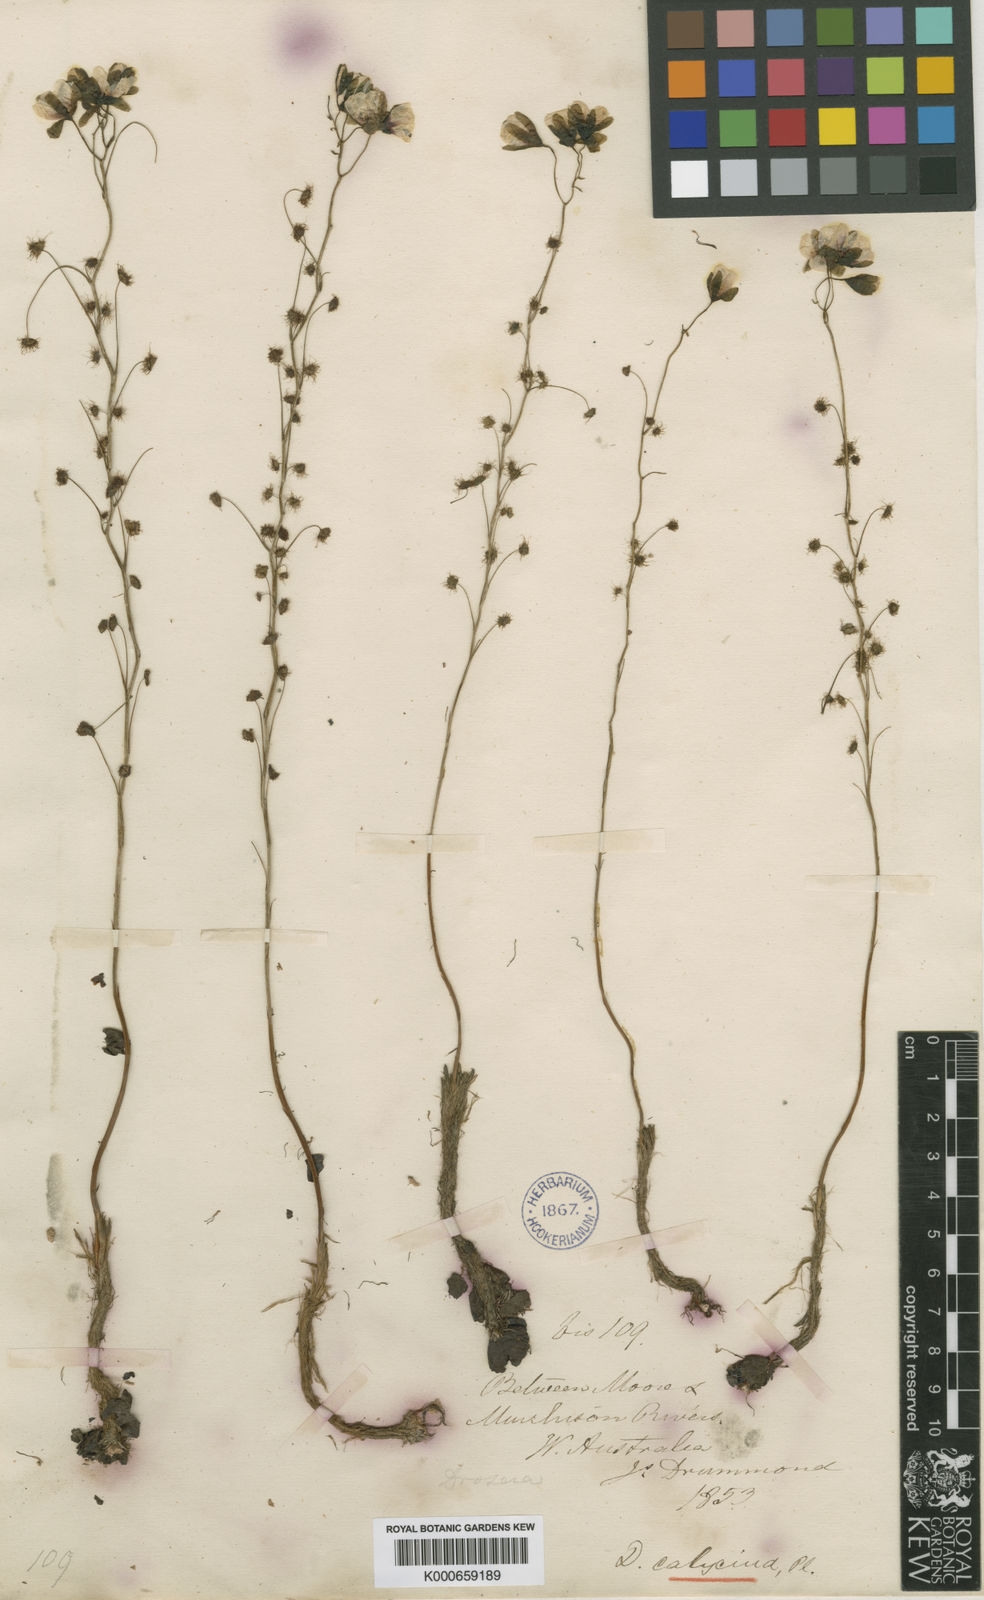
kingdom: Plantae
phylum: Tracheophyta
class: Magnoliopsida
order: Caryophyllales
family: Droseraceae
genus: Drosera
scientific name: Drosera microphylla
